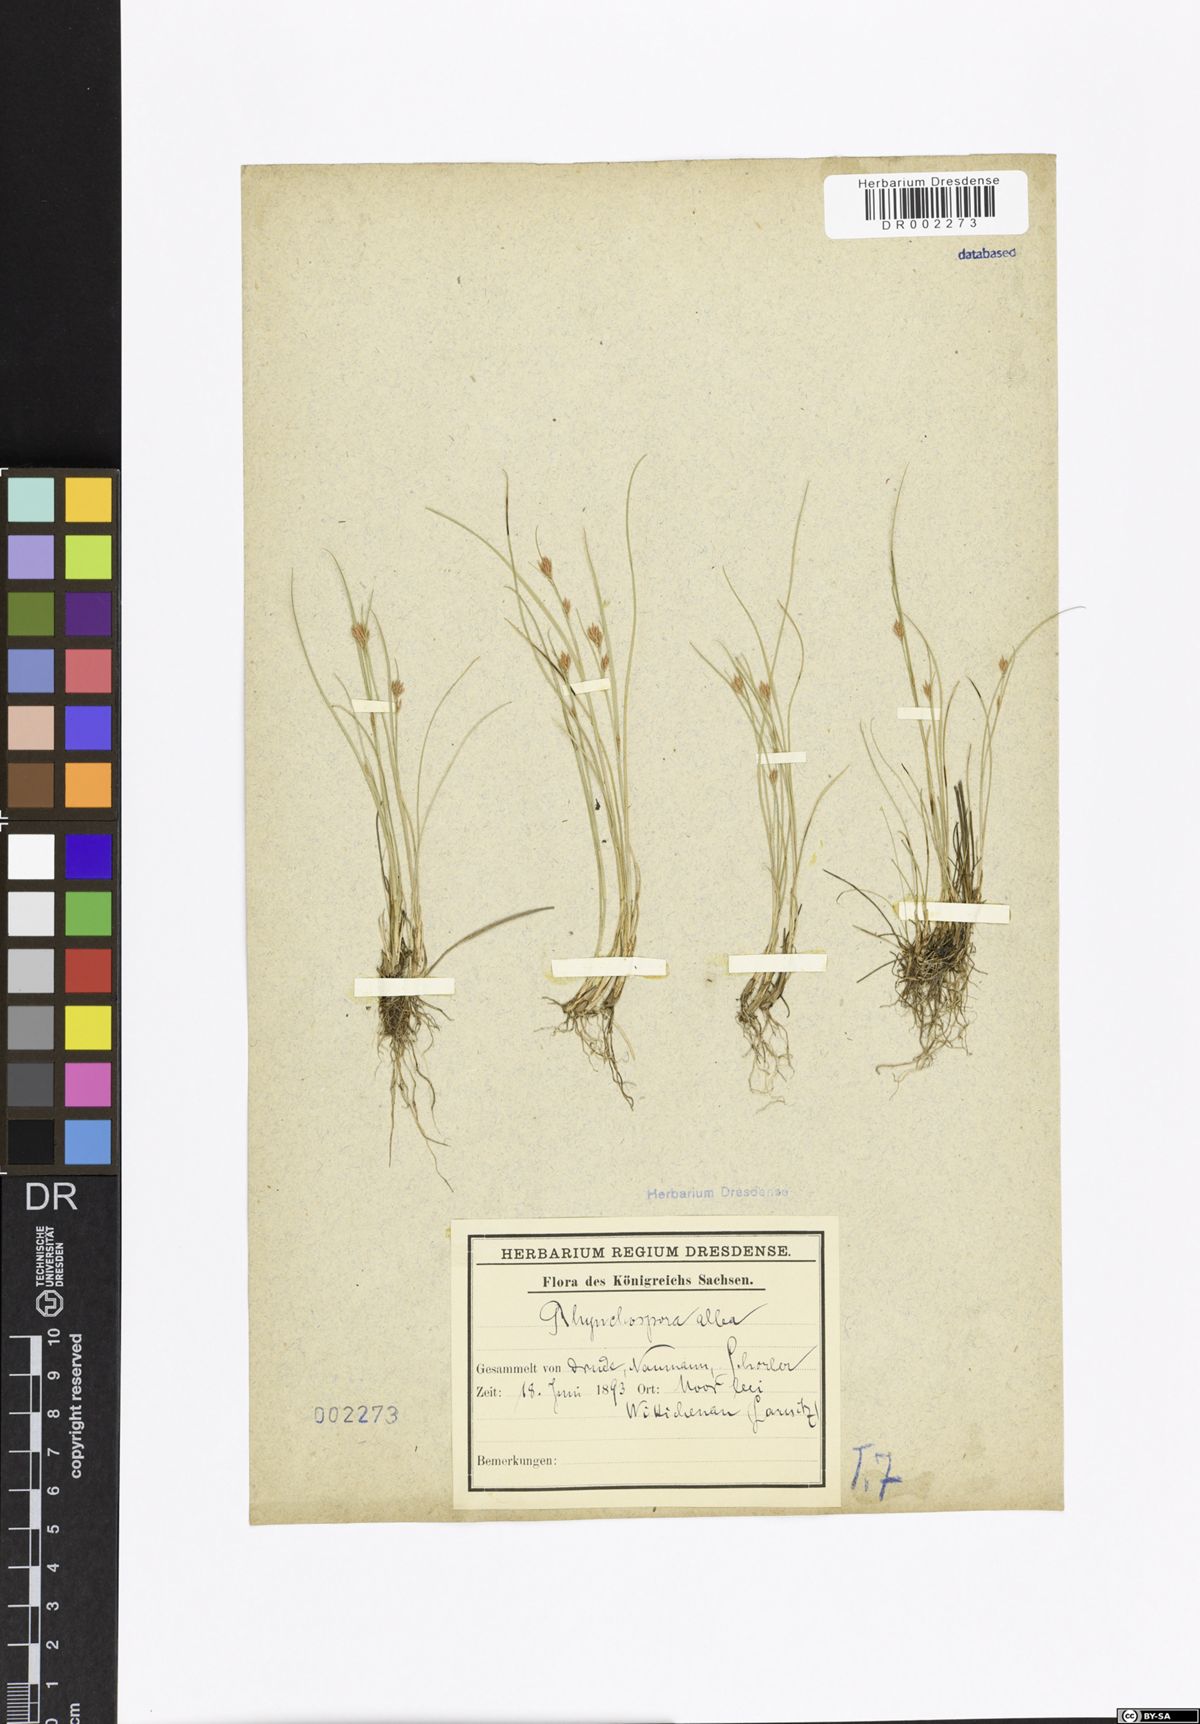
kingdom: Plantae
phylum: Tracheophyta
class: Liliopsida
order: Poales
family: Cyperaceae
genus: Rhynchospora
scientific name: Rhynchospora alba
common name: White beak-sedge
